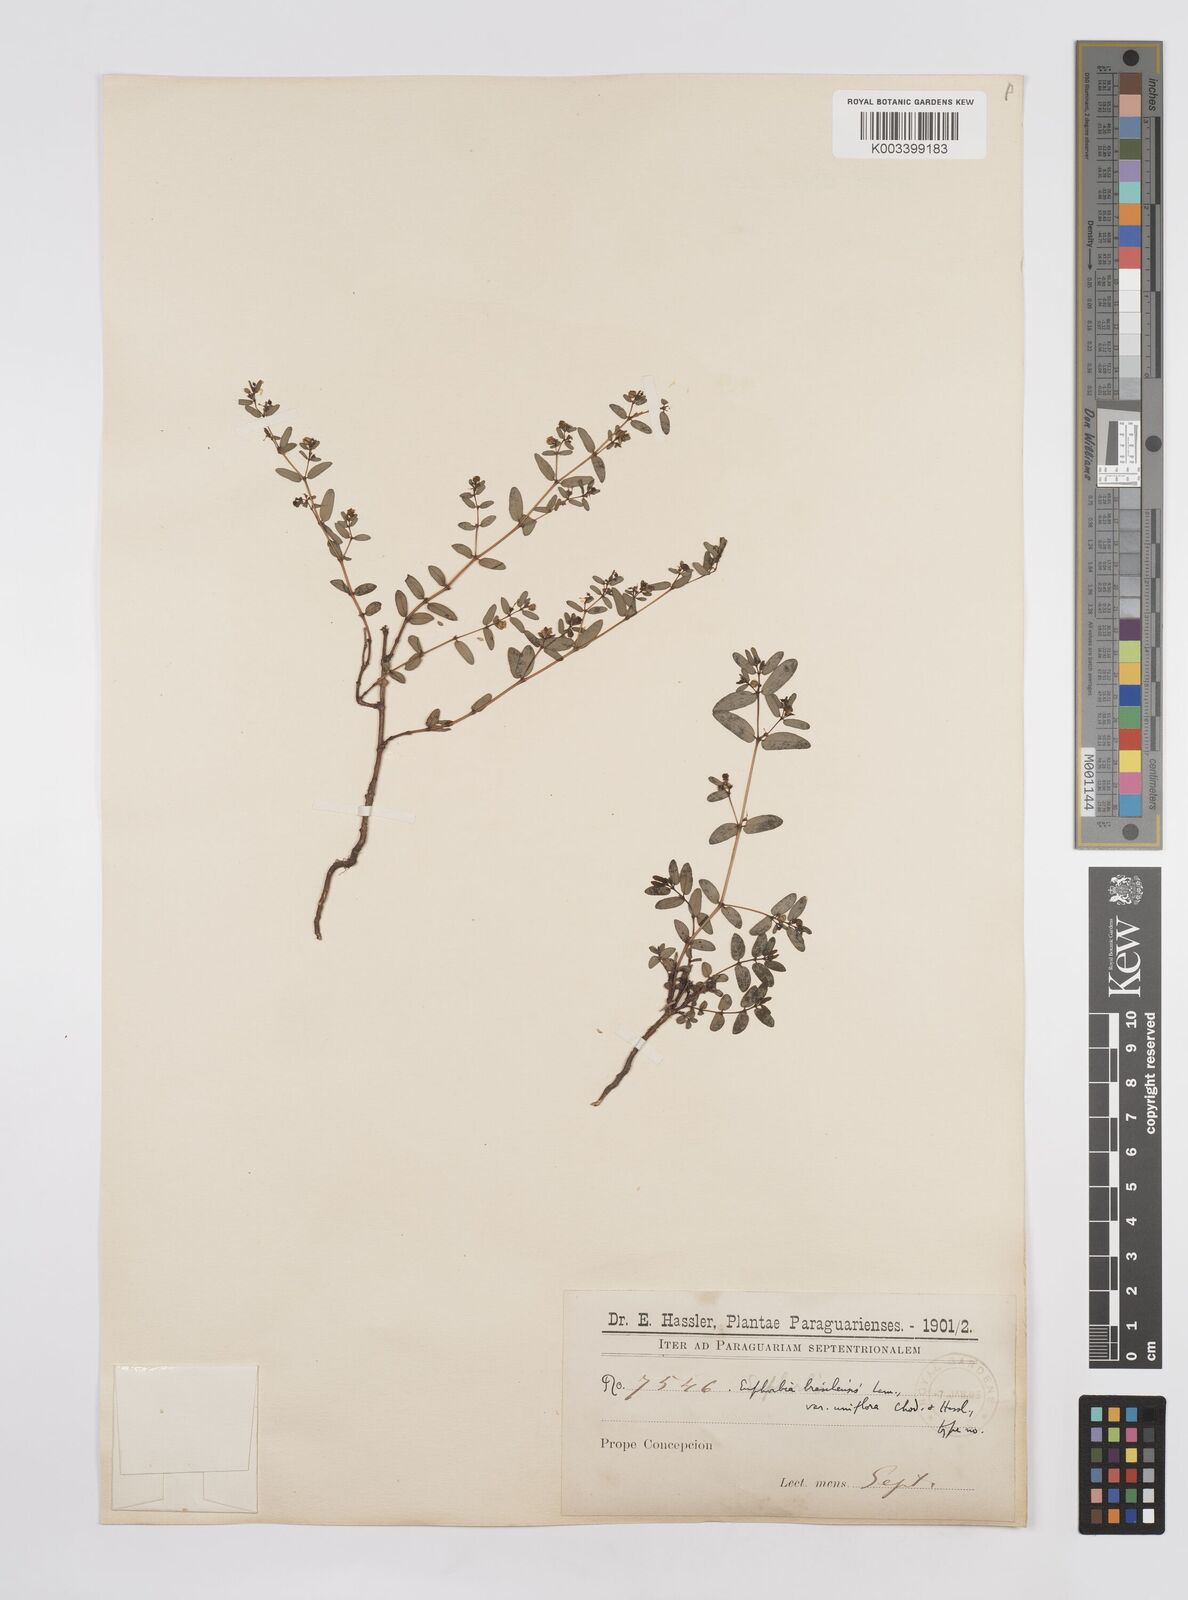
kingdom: Plantae
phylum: Tracheophyta
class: Magnoliopsida
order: Malpighiales
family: Euphorbiaceae
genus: Euphorbia
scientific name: Euphorbia hyssopifolia
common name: Hyssopleaf sandmat
